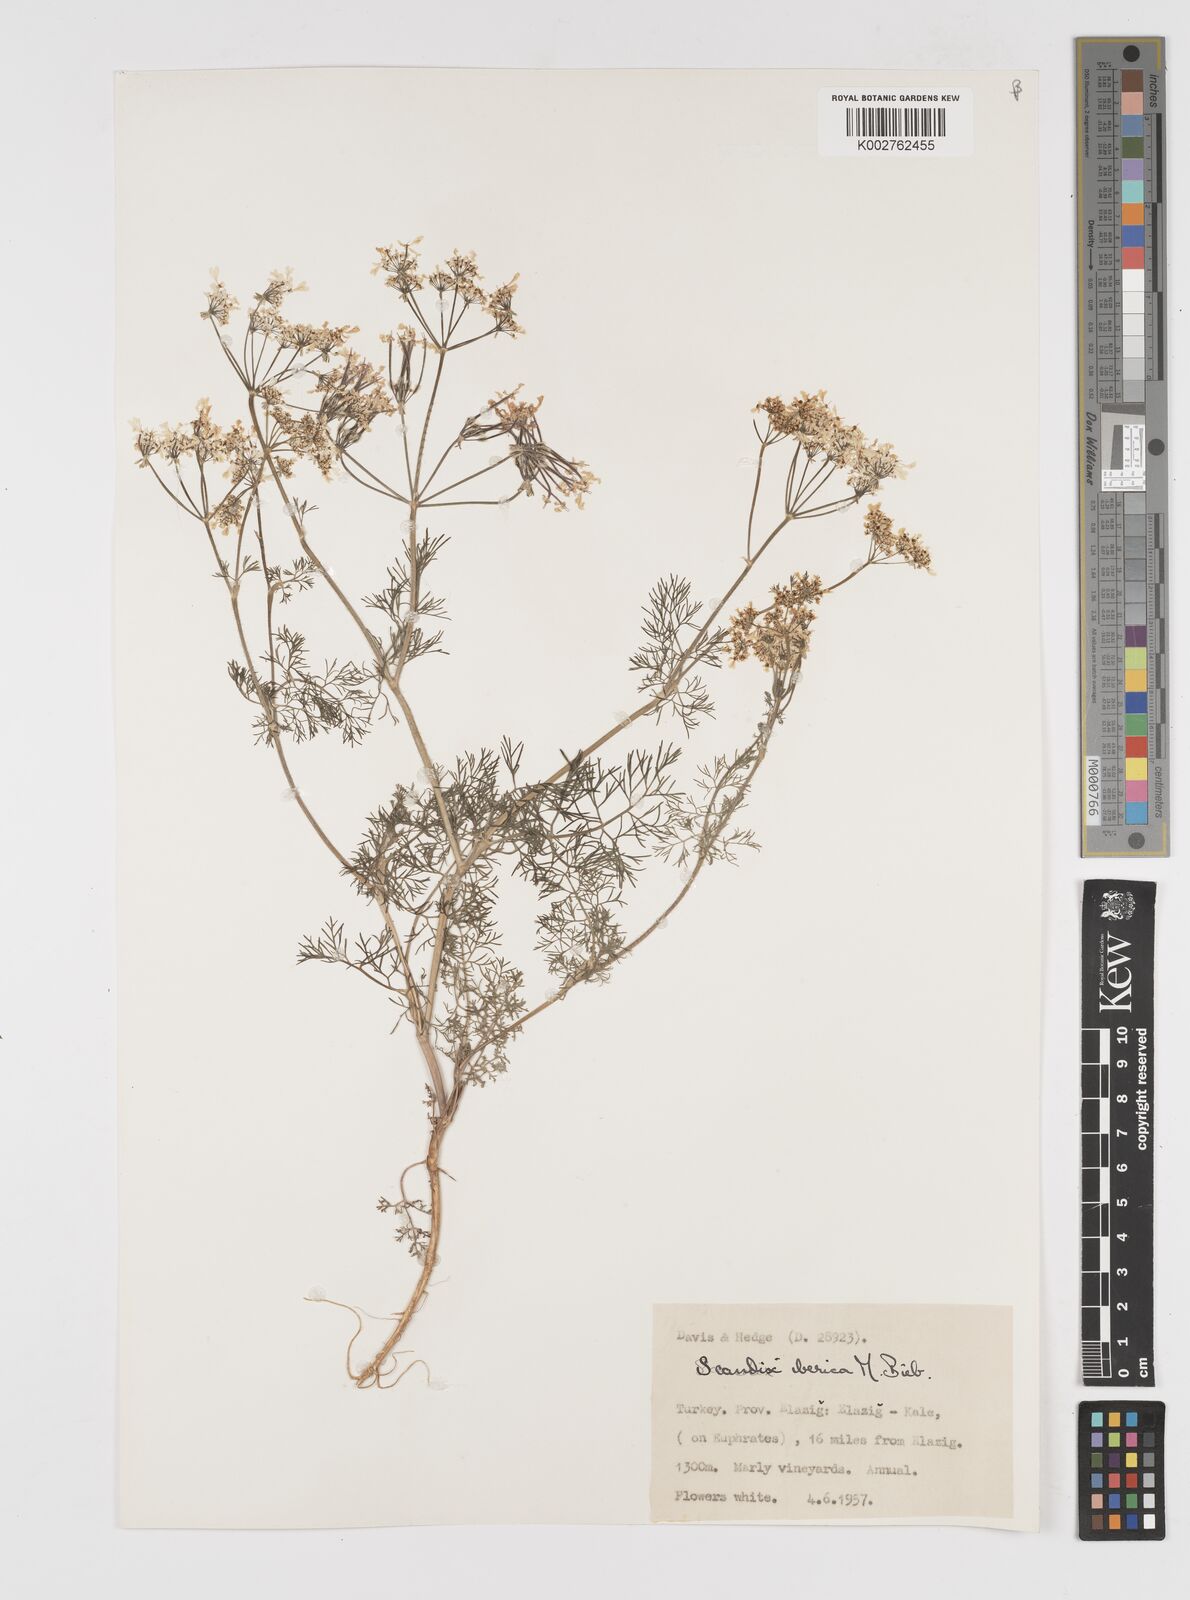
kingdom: Plantae
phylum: Tracheophyta
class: Magnoliopsida
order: Apiales
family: Apiaceae
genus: Scandix
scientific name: Scandix iberica
